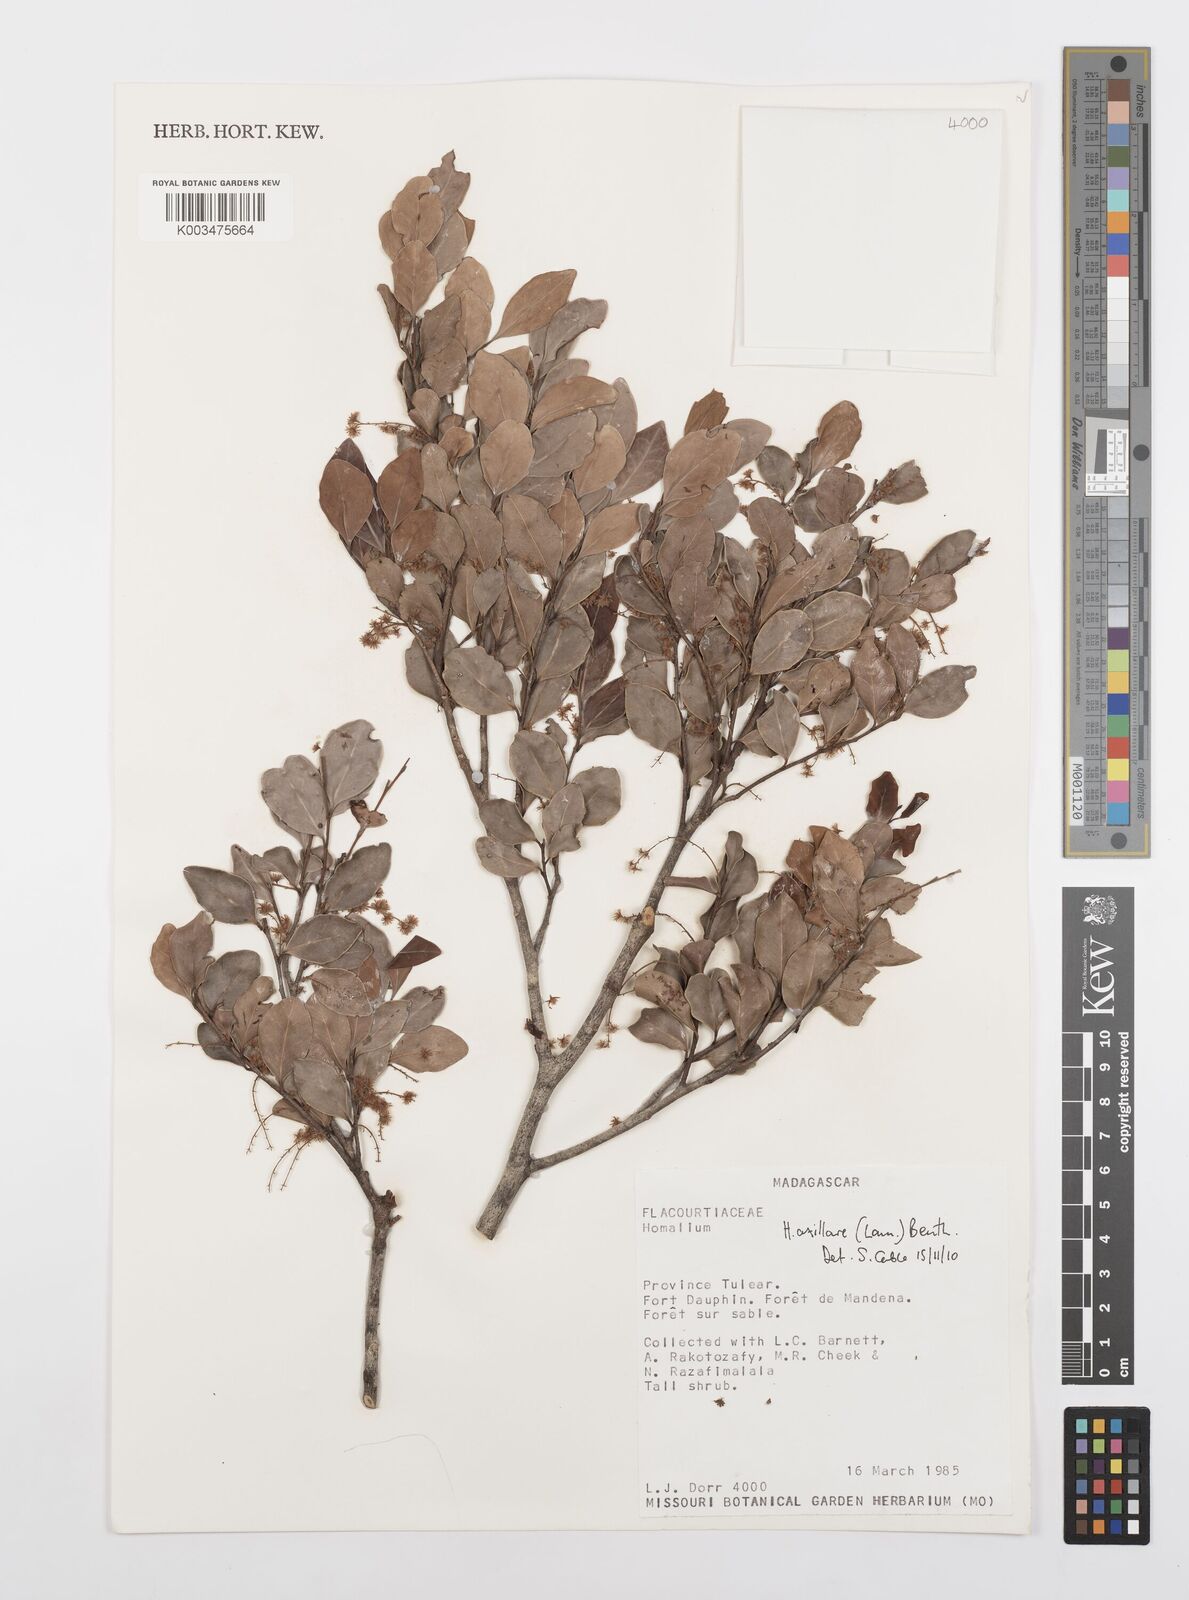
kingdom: Plantae
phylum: Tracheophyta
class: Magnoliopsida
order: Malpighiales
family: Salicaceae
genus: Homalium
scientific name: Homalium axillare
